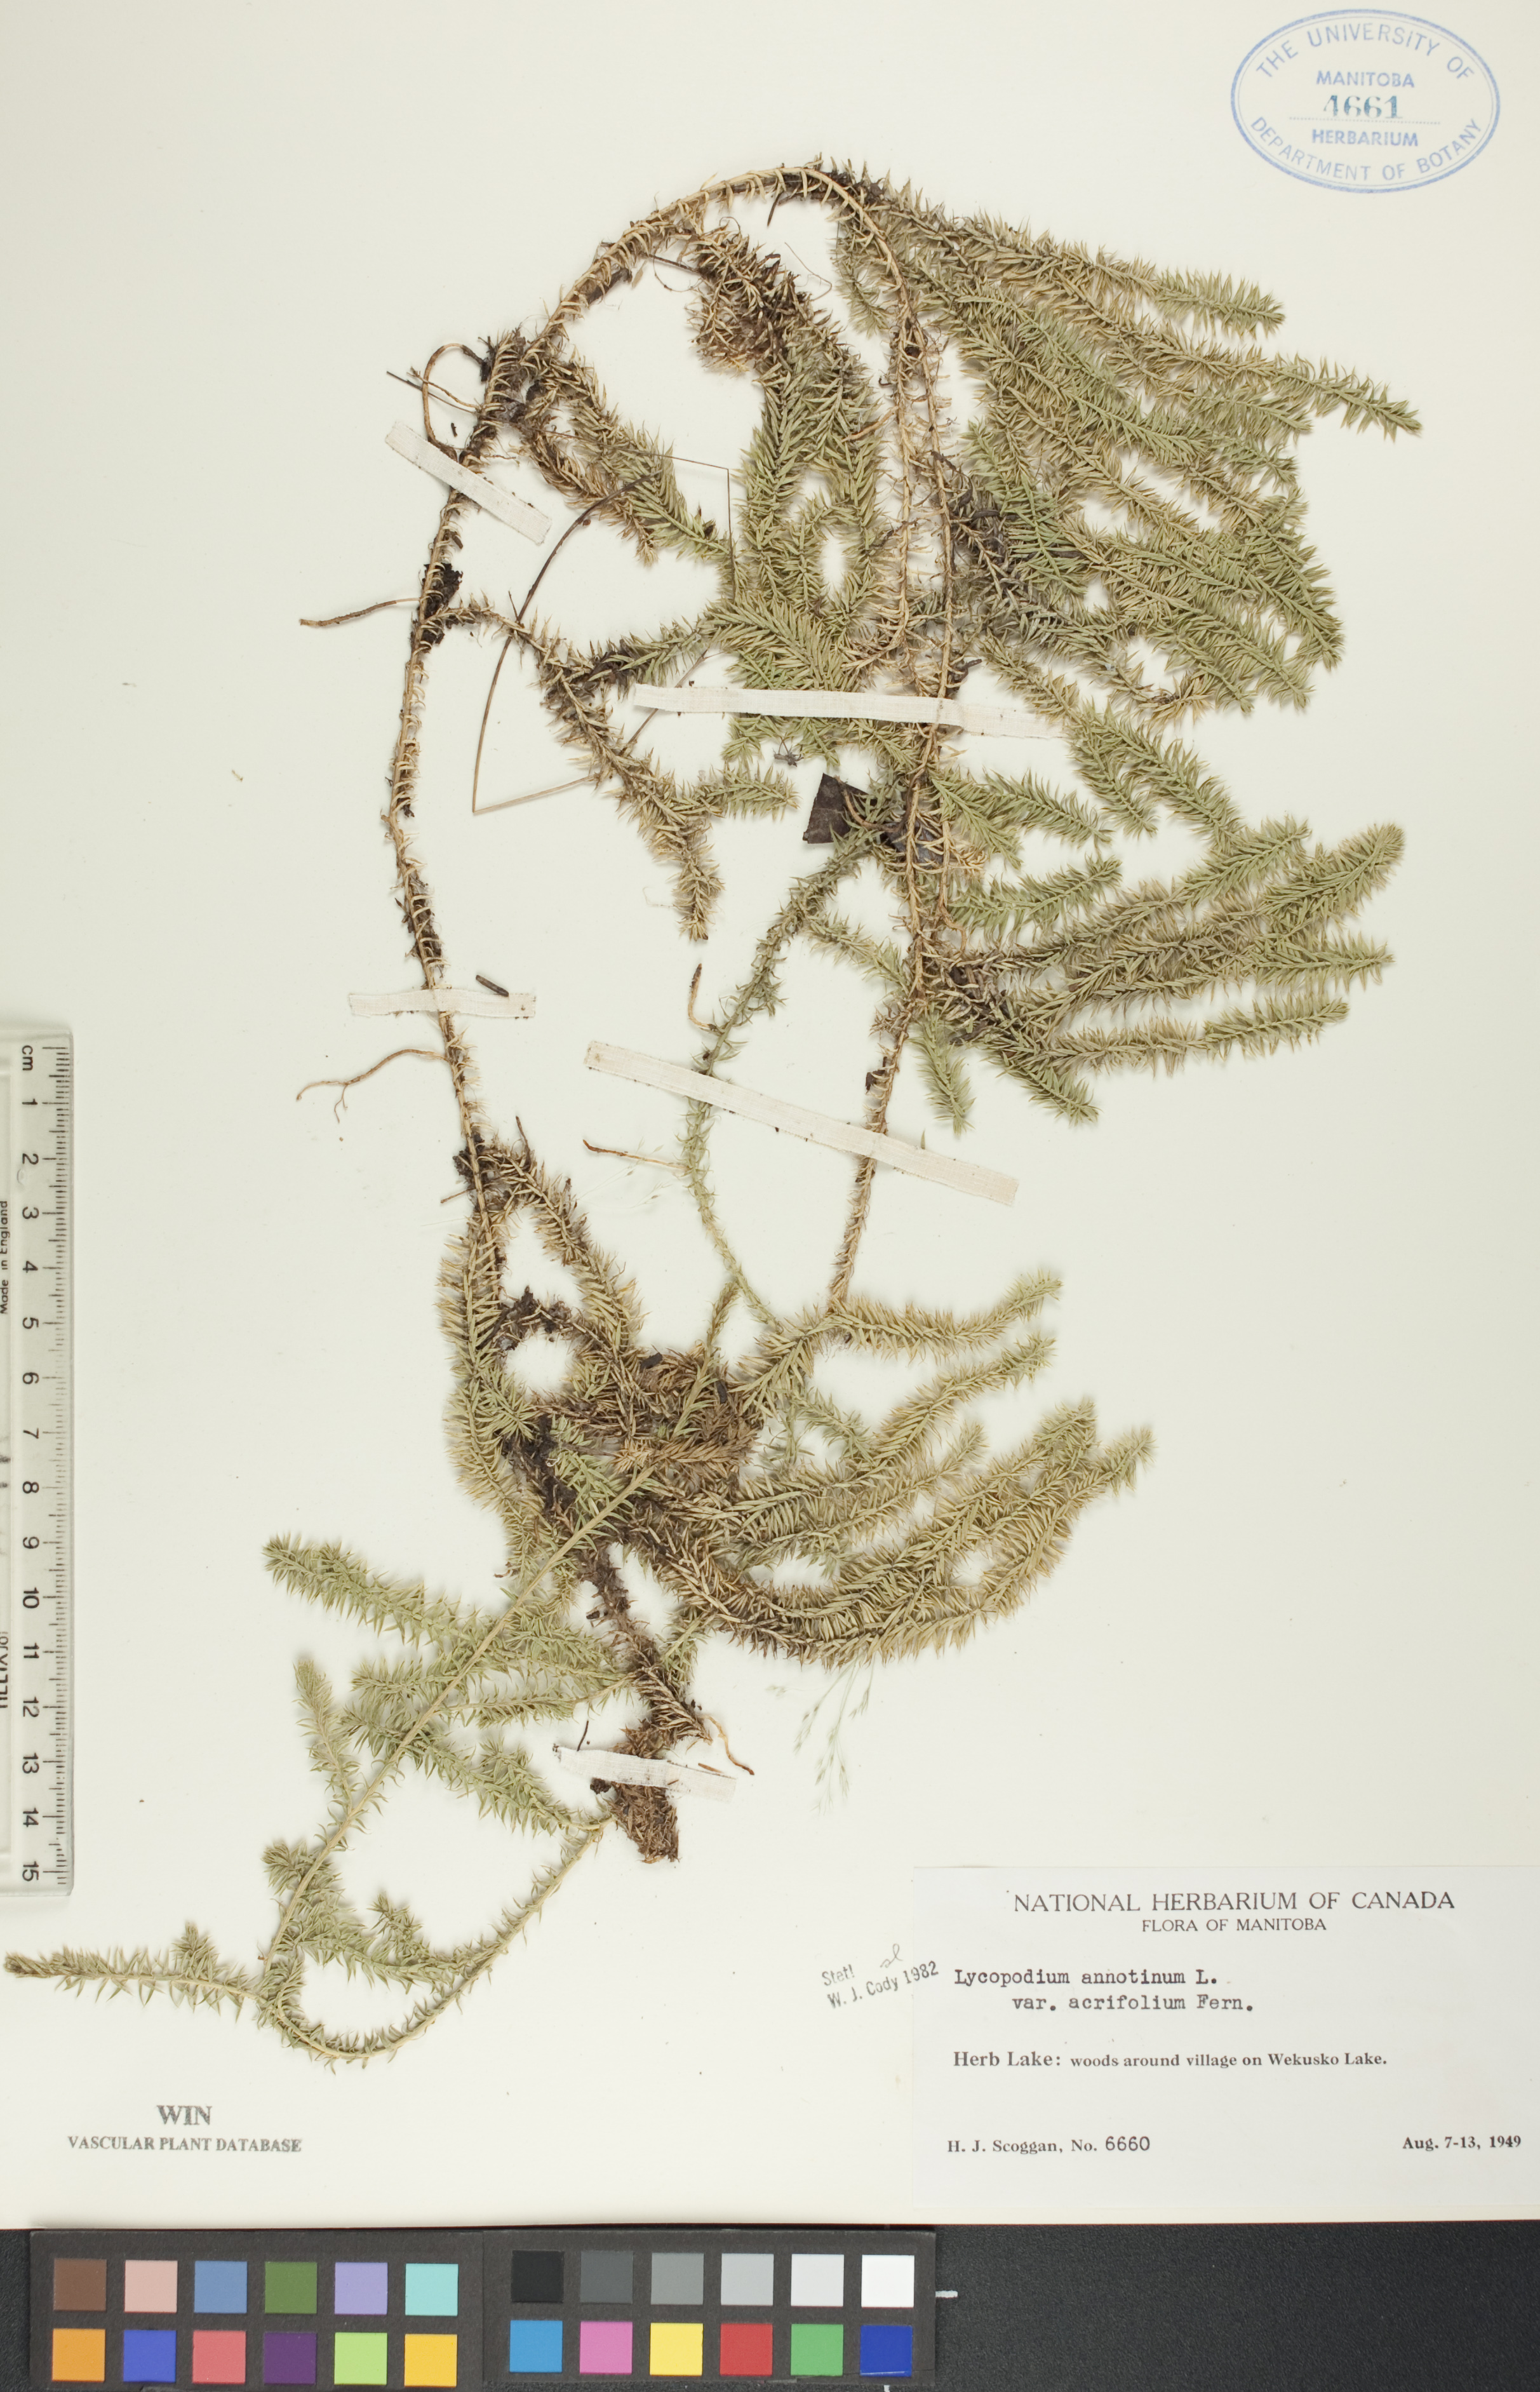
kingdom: Plantae
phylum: Tracheophyta
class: Lycopodiopsida
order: Lycopodiales
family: Lycopodiaceae
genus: Spinulum
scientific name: Spinulum annotinum
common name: Interrupted club-moss
